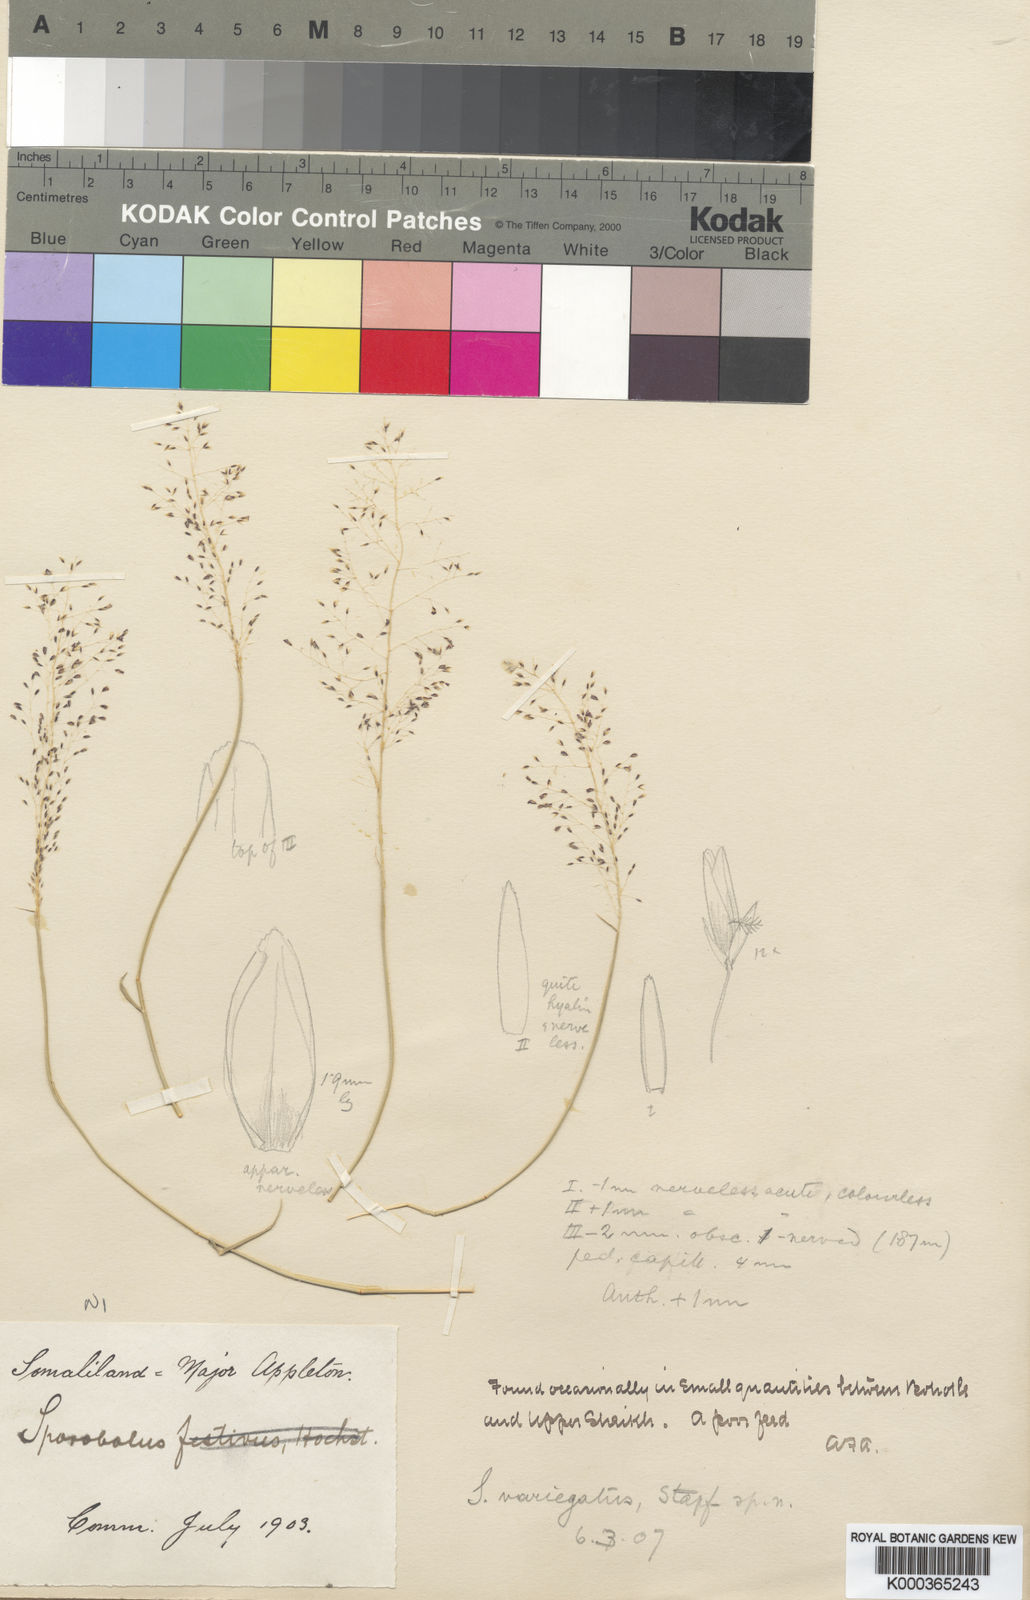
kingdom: Plantae
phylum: Tracheophyta
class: Liliopsida
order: Poales
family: Poaceae
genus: Sporobolus
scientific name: Sporobolus somalensis
